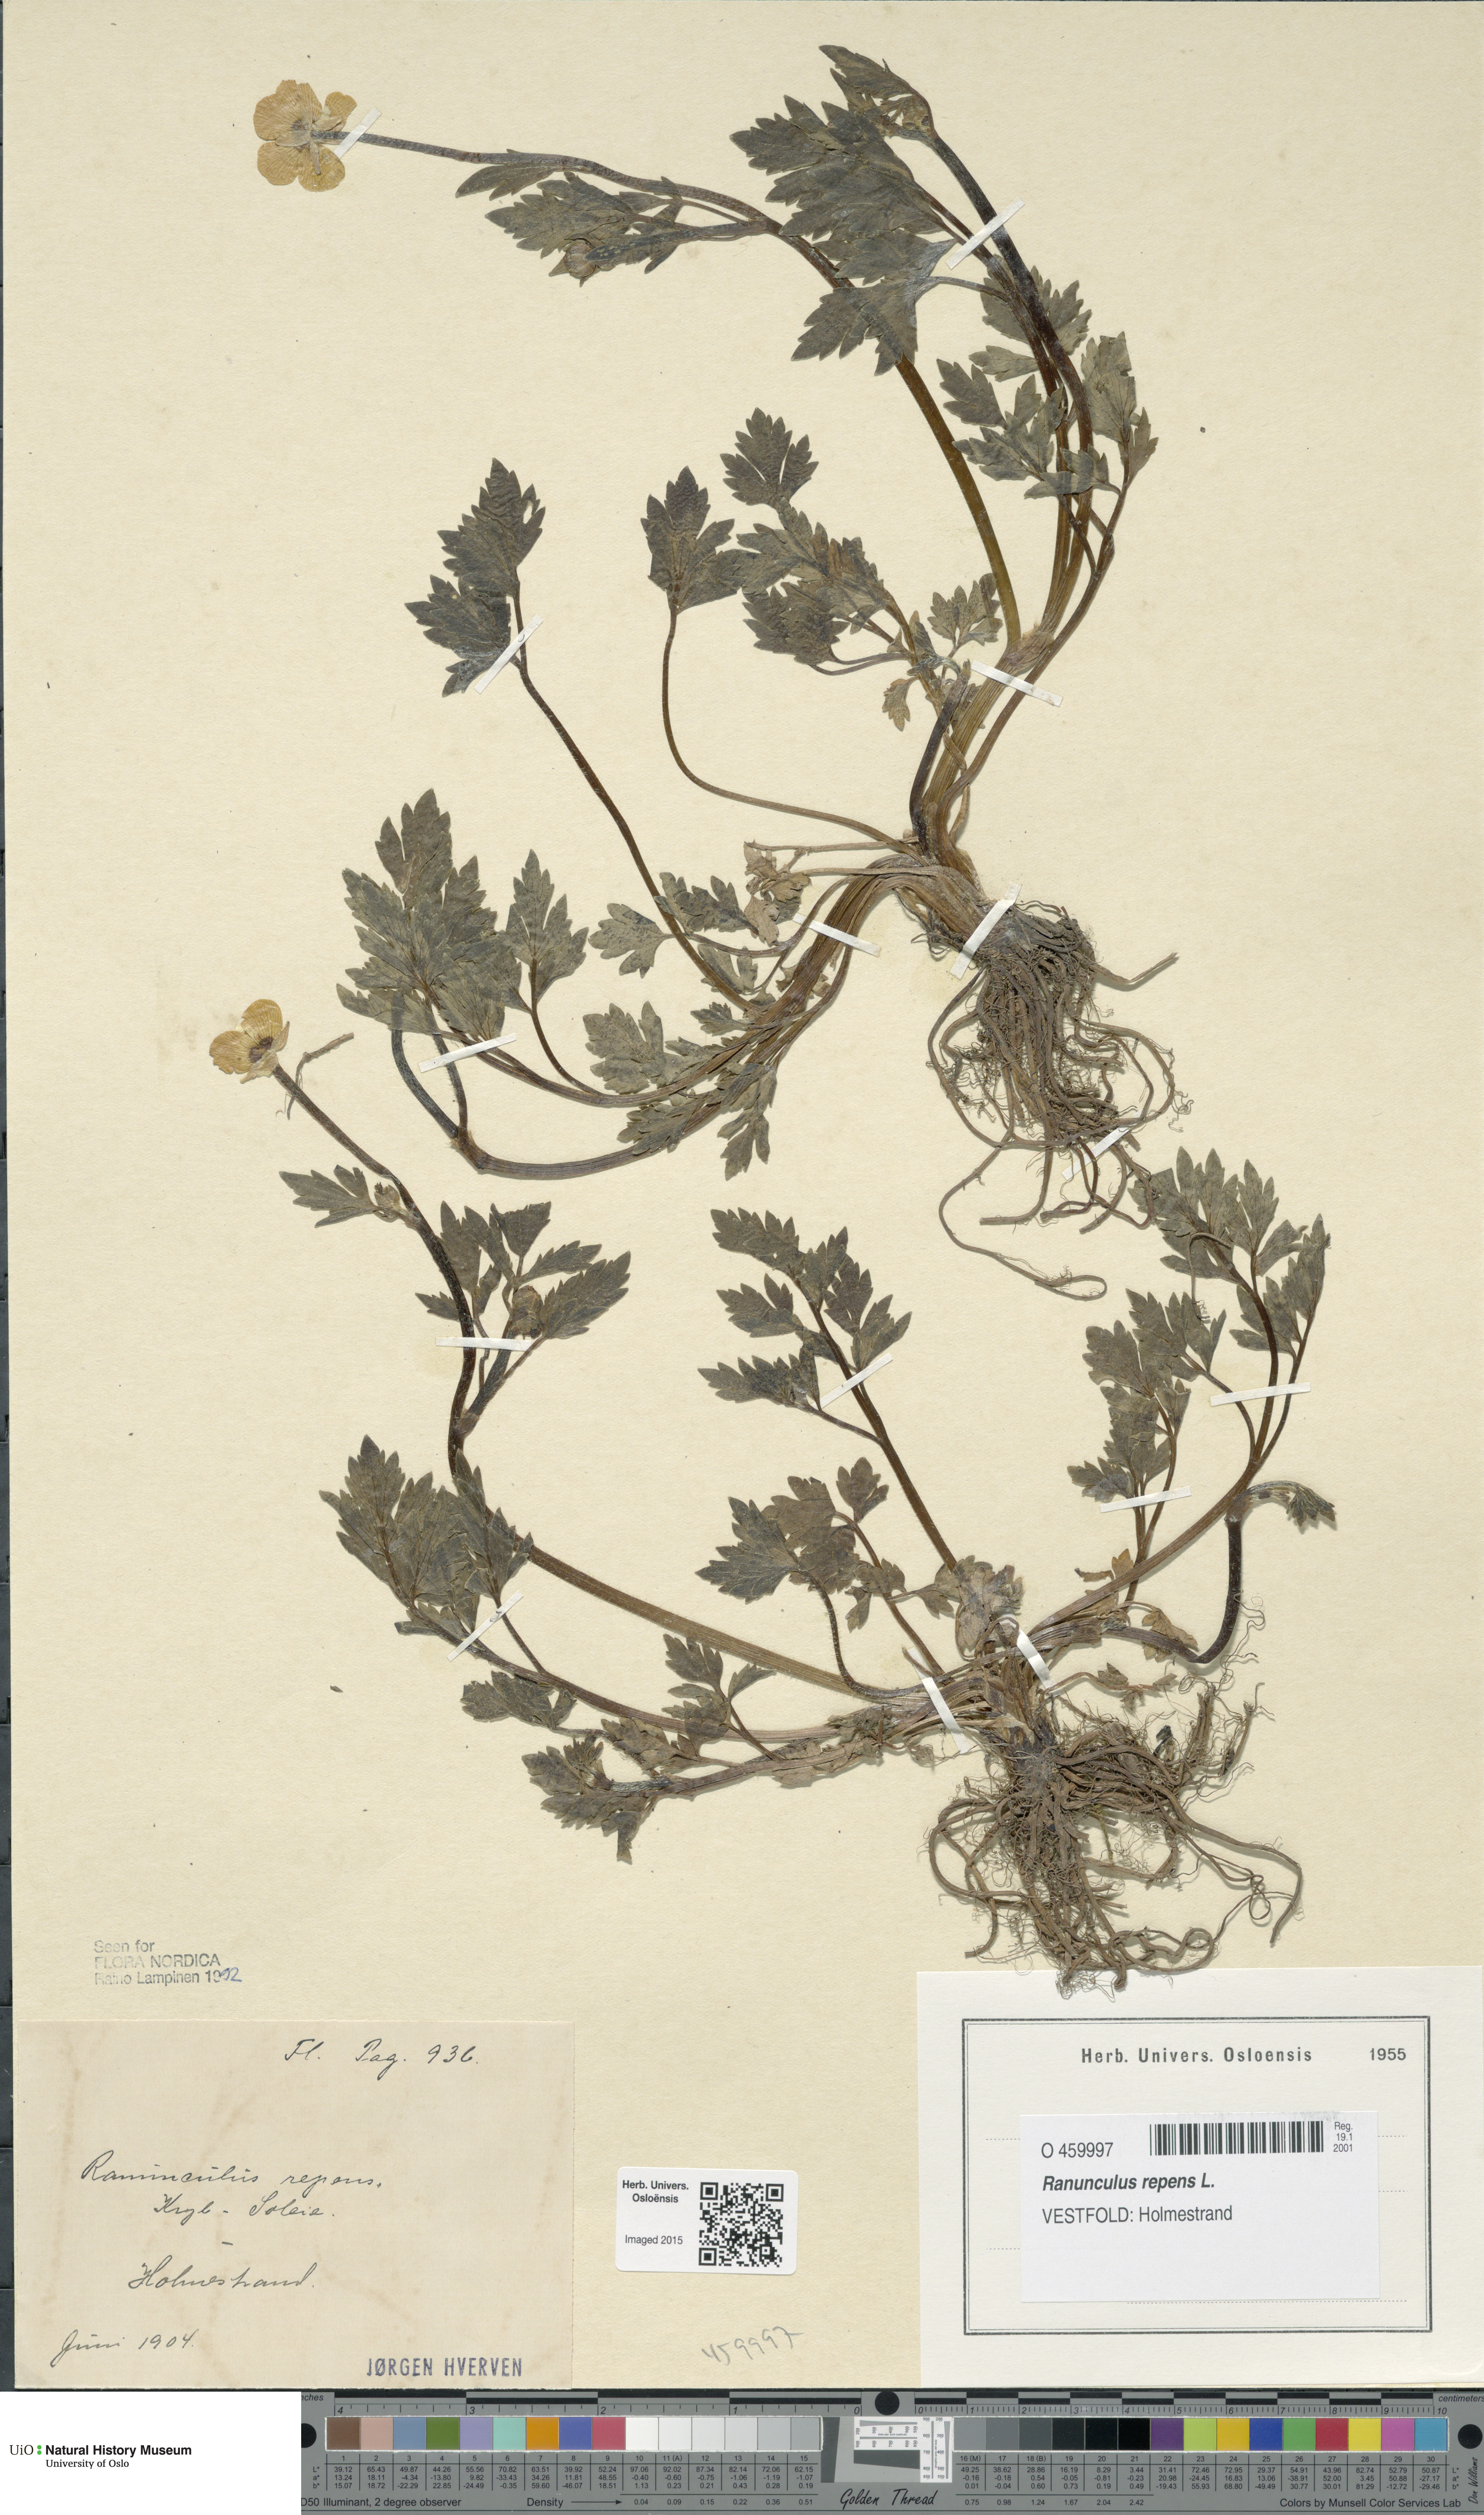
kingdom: Plantae
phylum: Tracheophyta
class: Magnoliopsida
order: Ranunculales
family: Ranunculaceae
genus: Ranunculus
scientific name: Ranunculus repens
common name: Creeping buttercup
